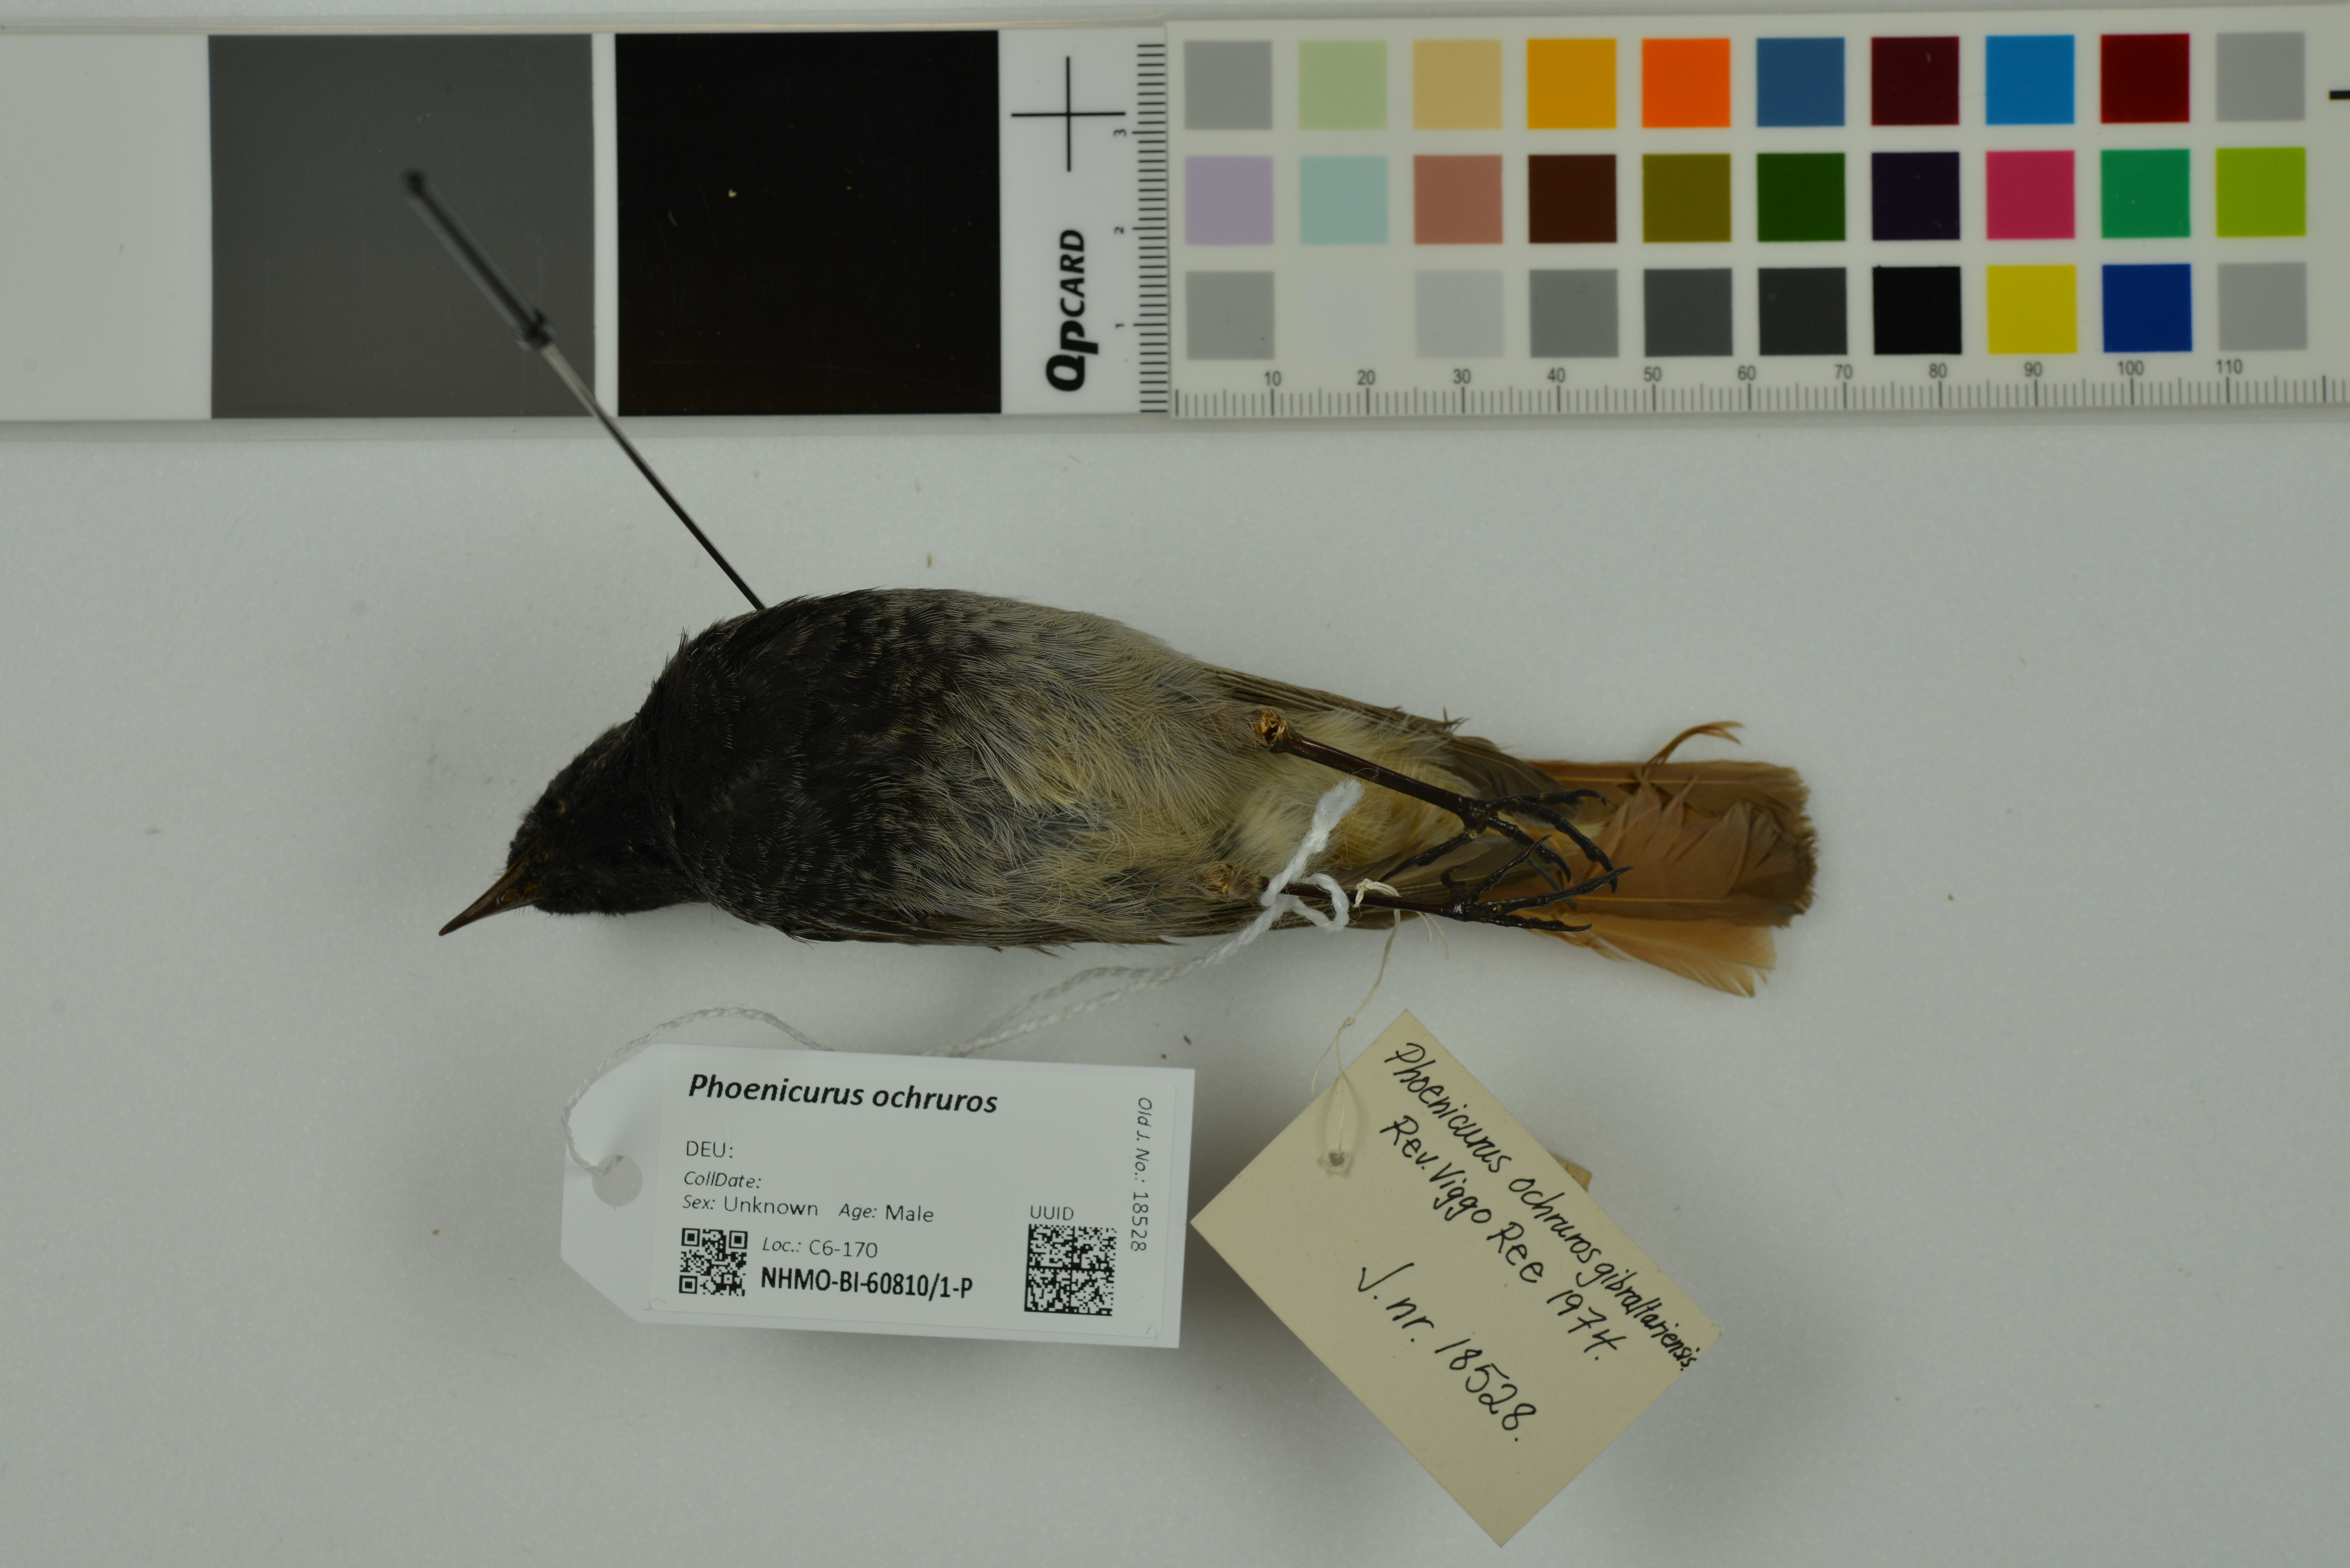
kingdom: Animalia
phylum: Chordata
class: Aves
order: Passeriformes
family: Muscicapidae
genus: Phoenicurus
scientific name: Phoenicurus ochruros
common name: Black redstart
